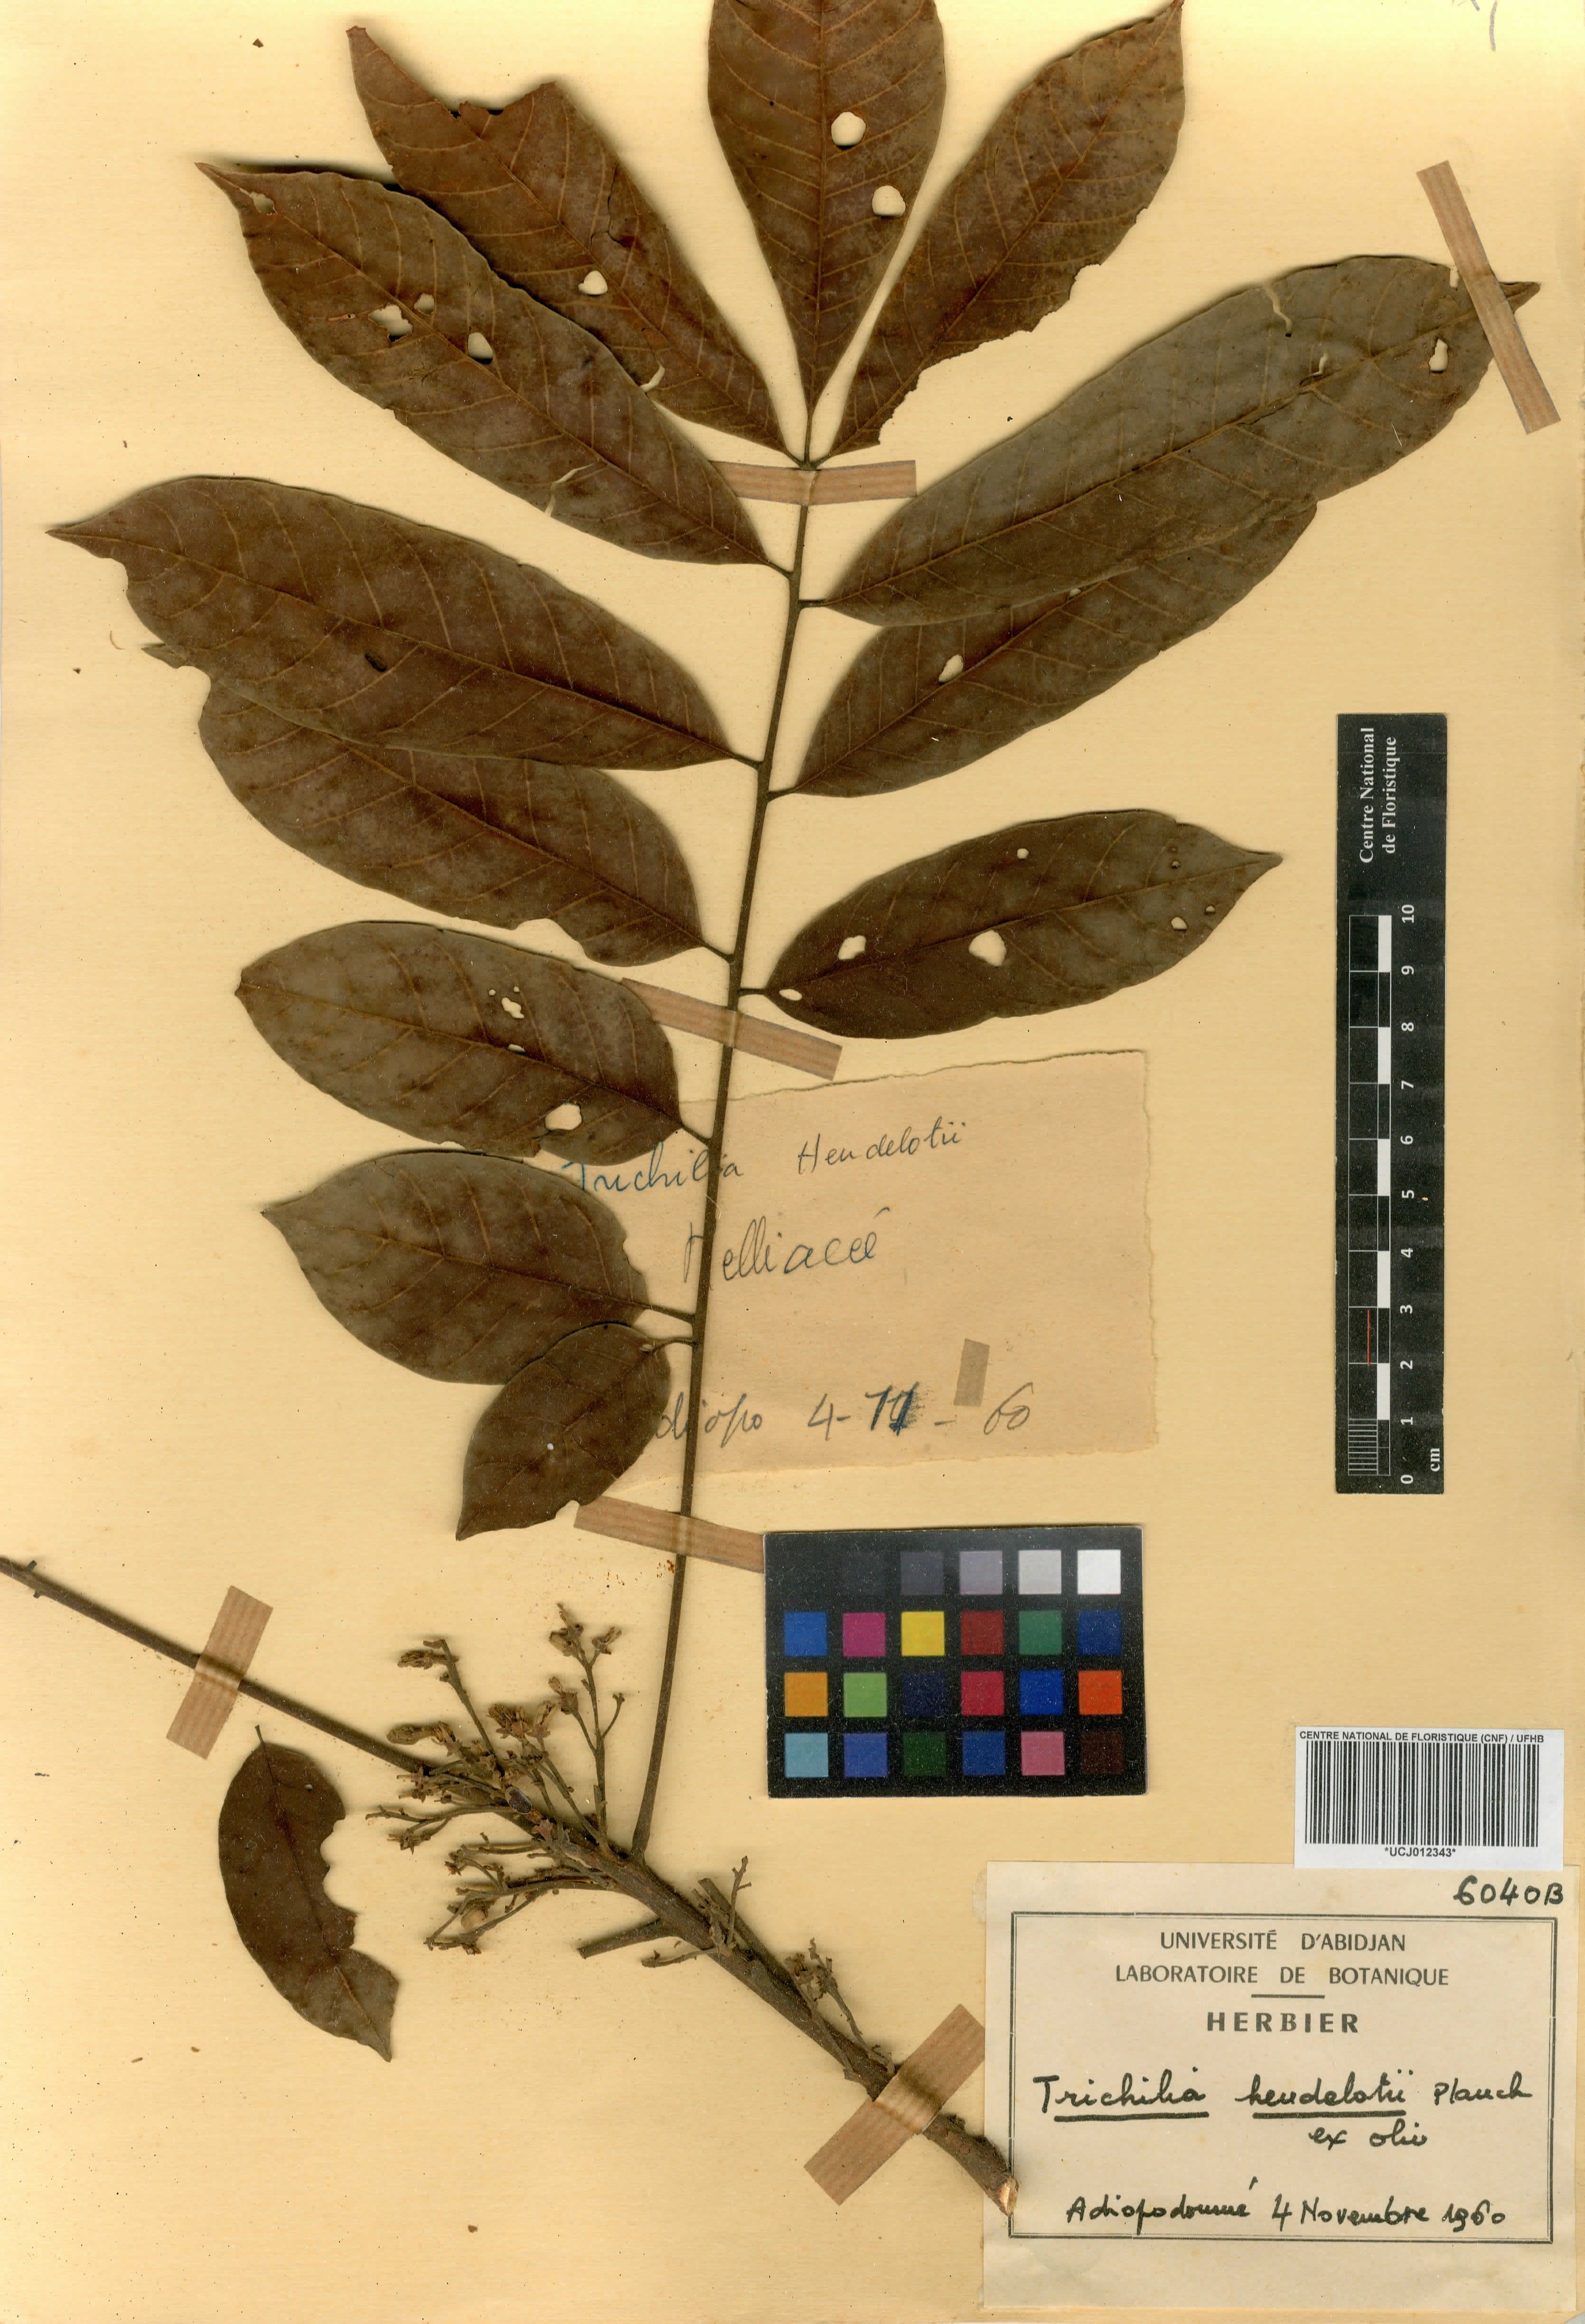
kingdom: Plantae
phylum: Tracheophyta
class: Magnoliopsida
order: Sapindales
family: Meliaceae
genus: Trichilia
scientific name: Trichilia monadelpha
